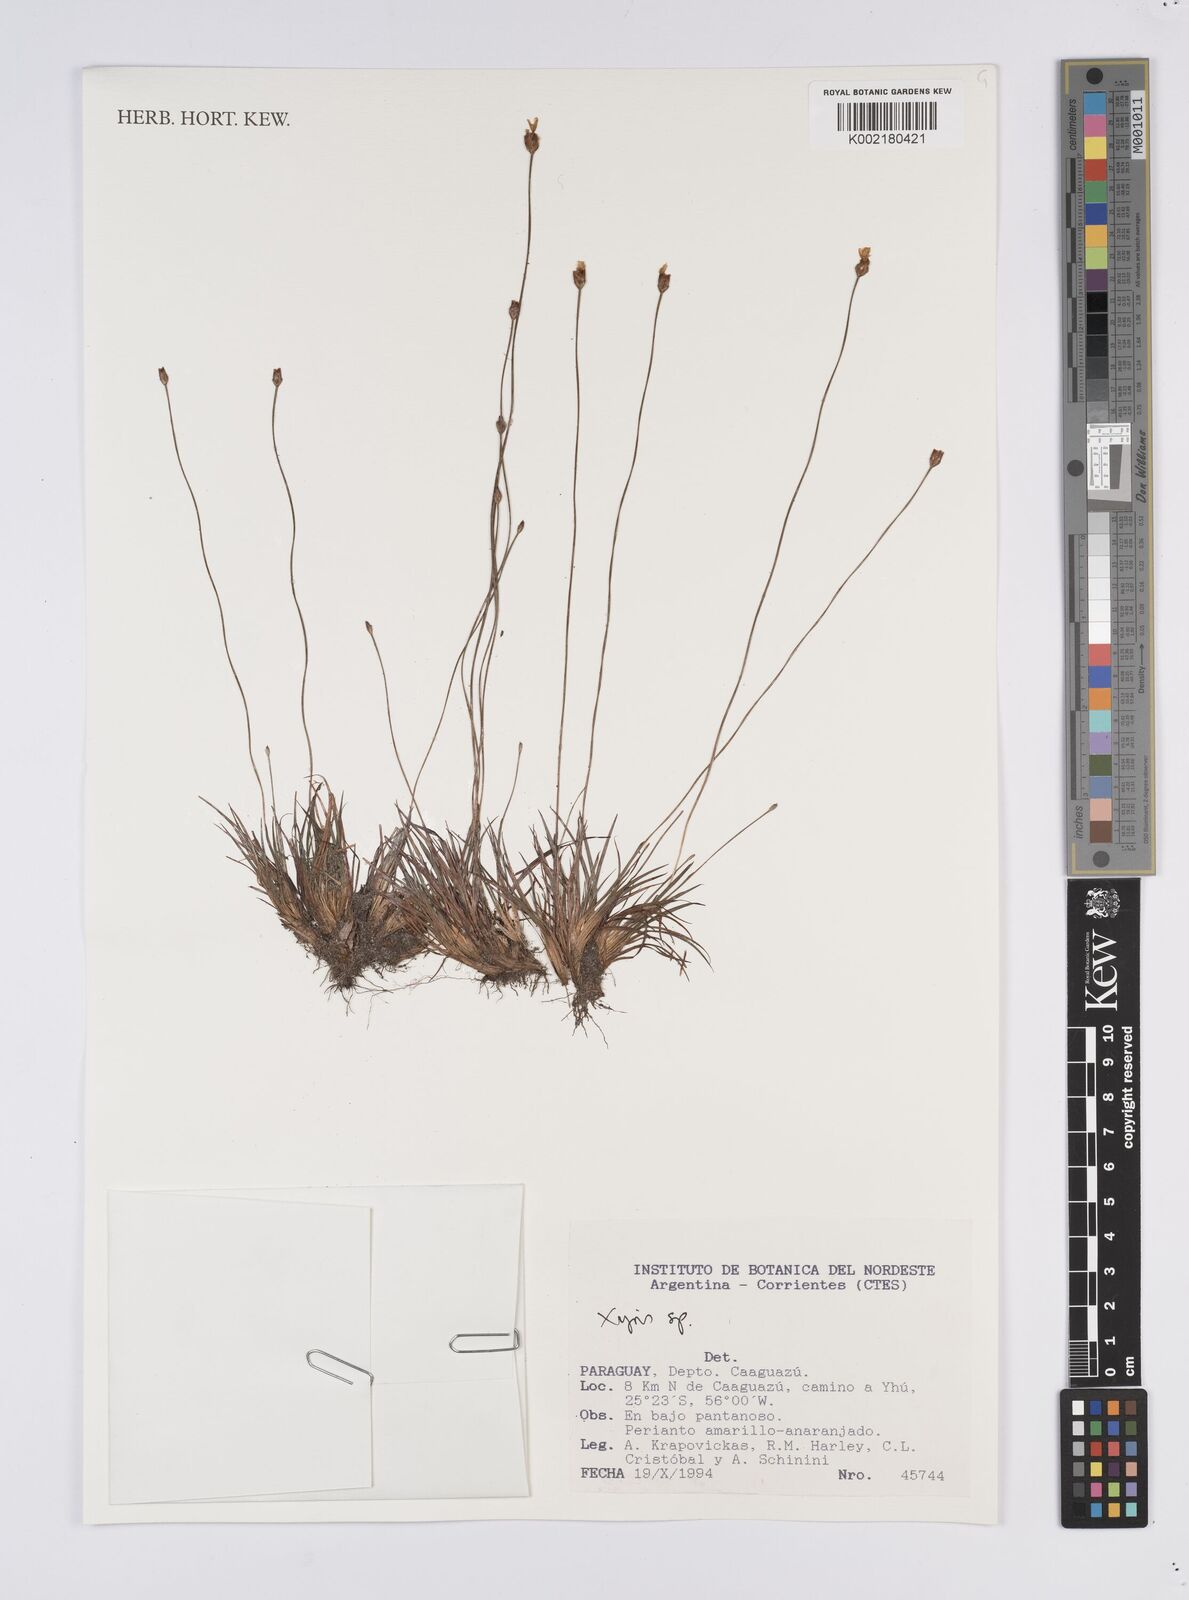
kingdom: Plantae
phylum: Tracheophyta
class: Liliopsida
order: Poales
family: Xyridaceae
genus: Xyris
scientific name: Xyris
